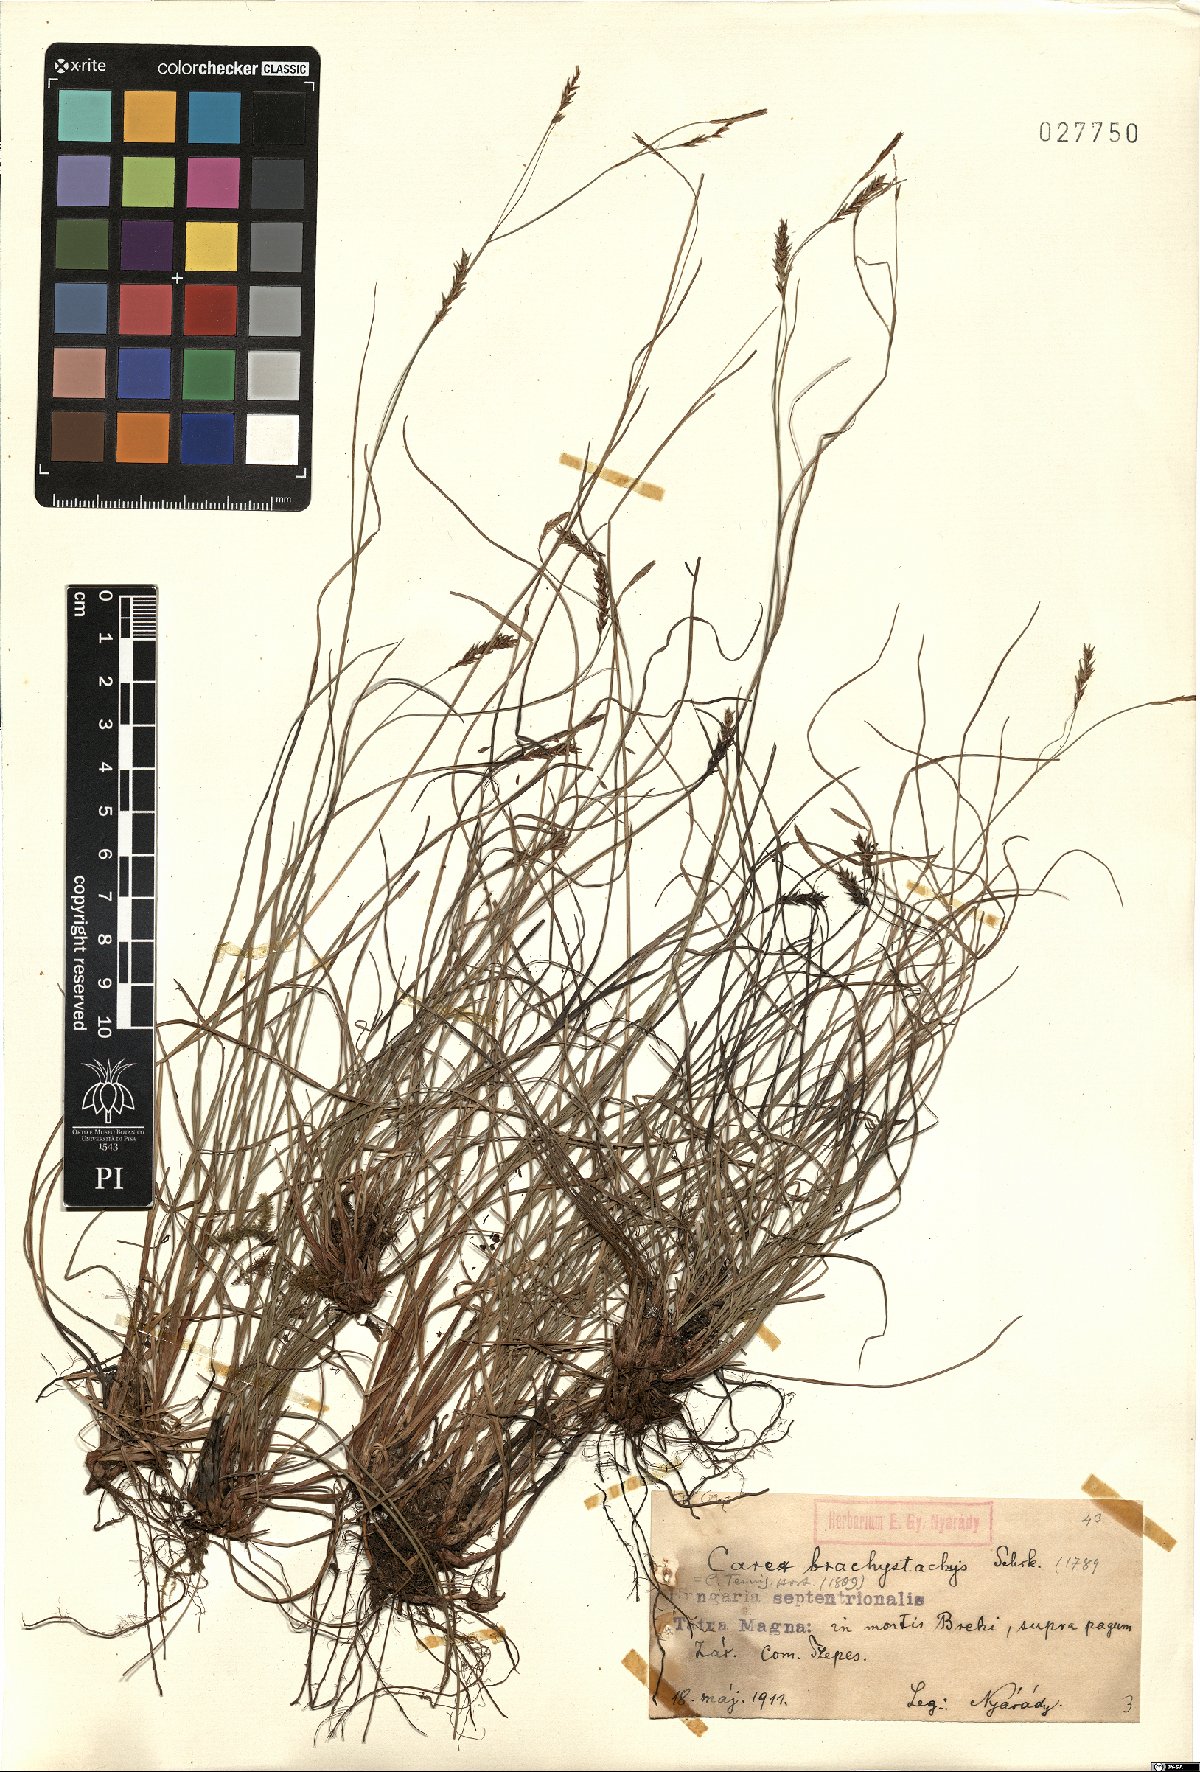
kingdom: Plantae
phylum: Tracheophyta
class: Liliopsida
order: Poales
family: Cyperaceae
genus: Carex
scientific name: Carex brachystachys
